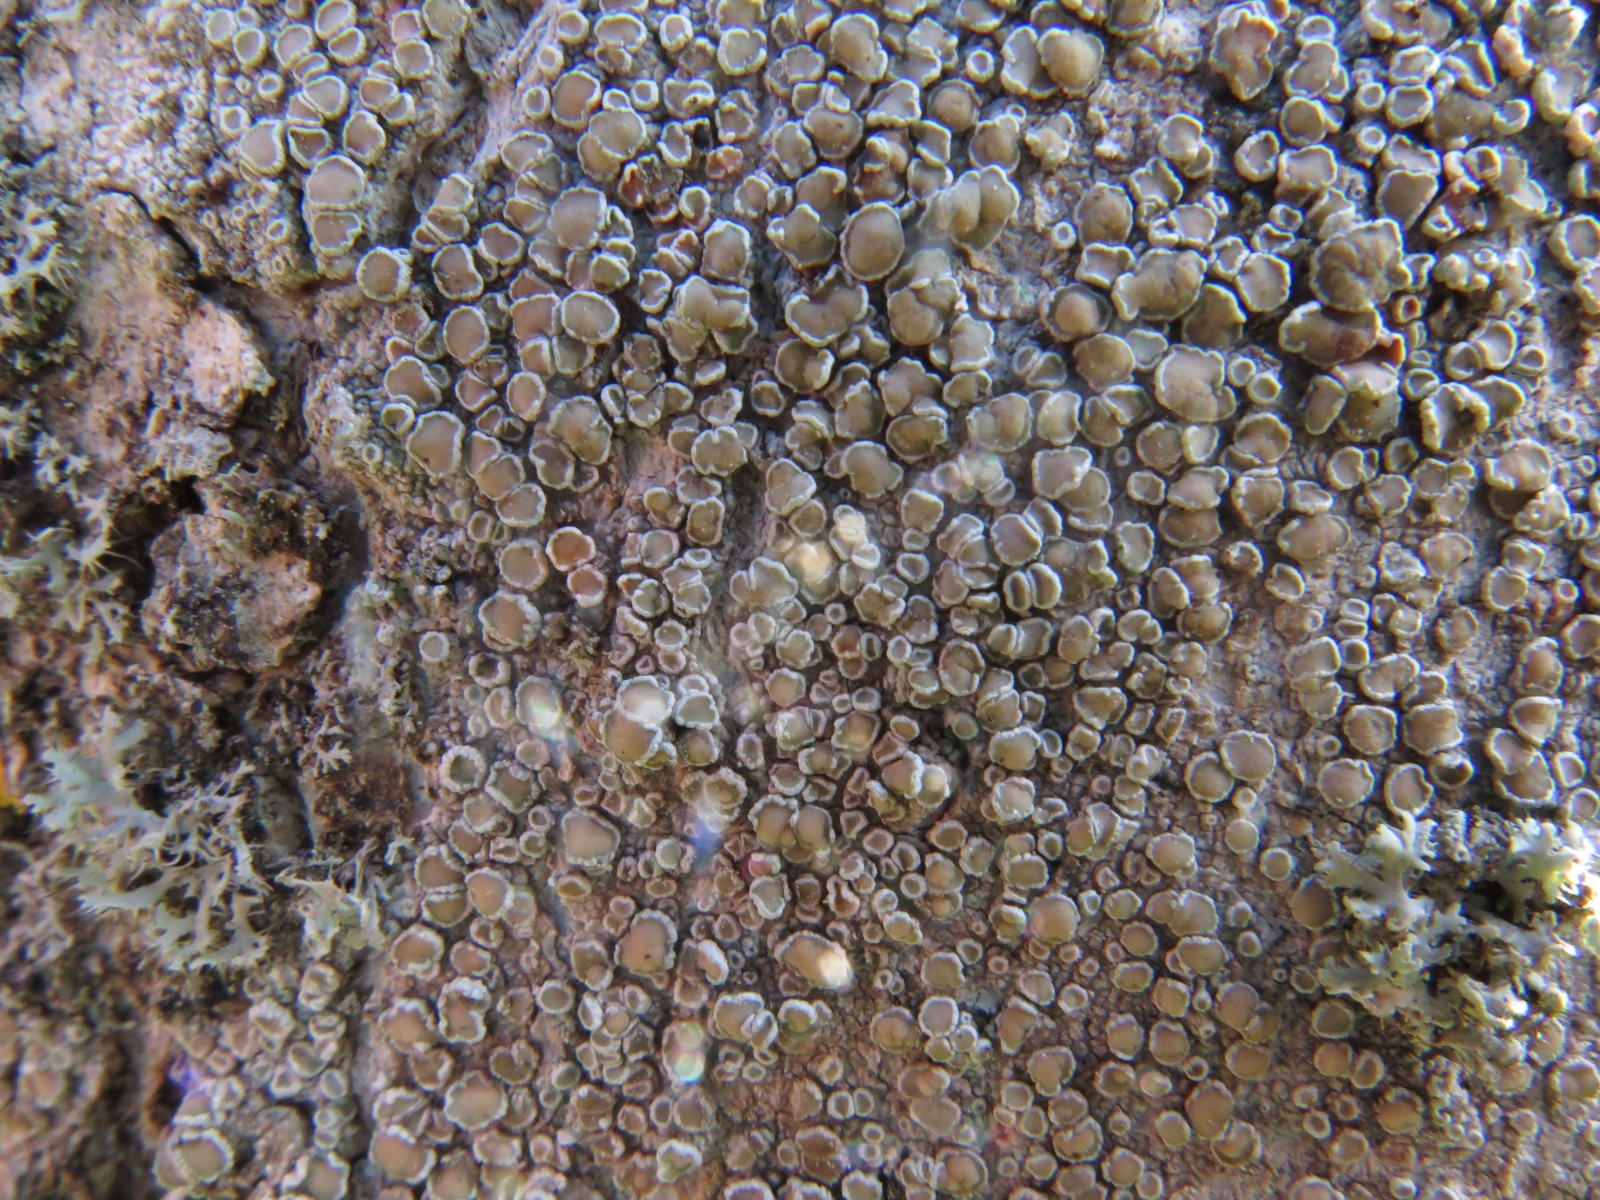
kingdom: Fungi
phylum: Ascomycota
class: Lecanoromycetes
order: Lecanorales
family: Lecanoraceae
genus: Lecanora
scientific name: Lecanora chlarotera
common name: brun kantskivelav
